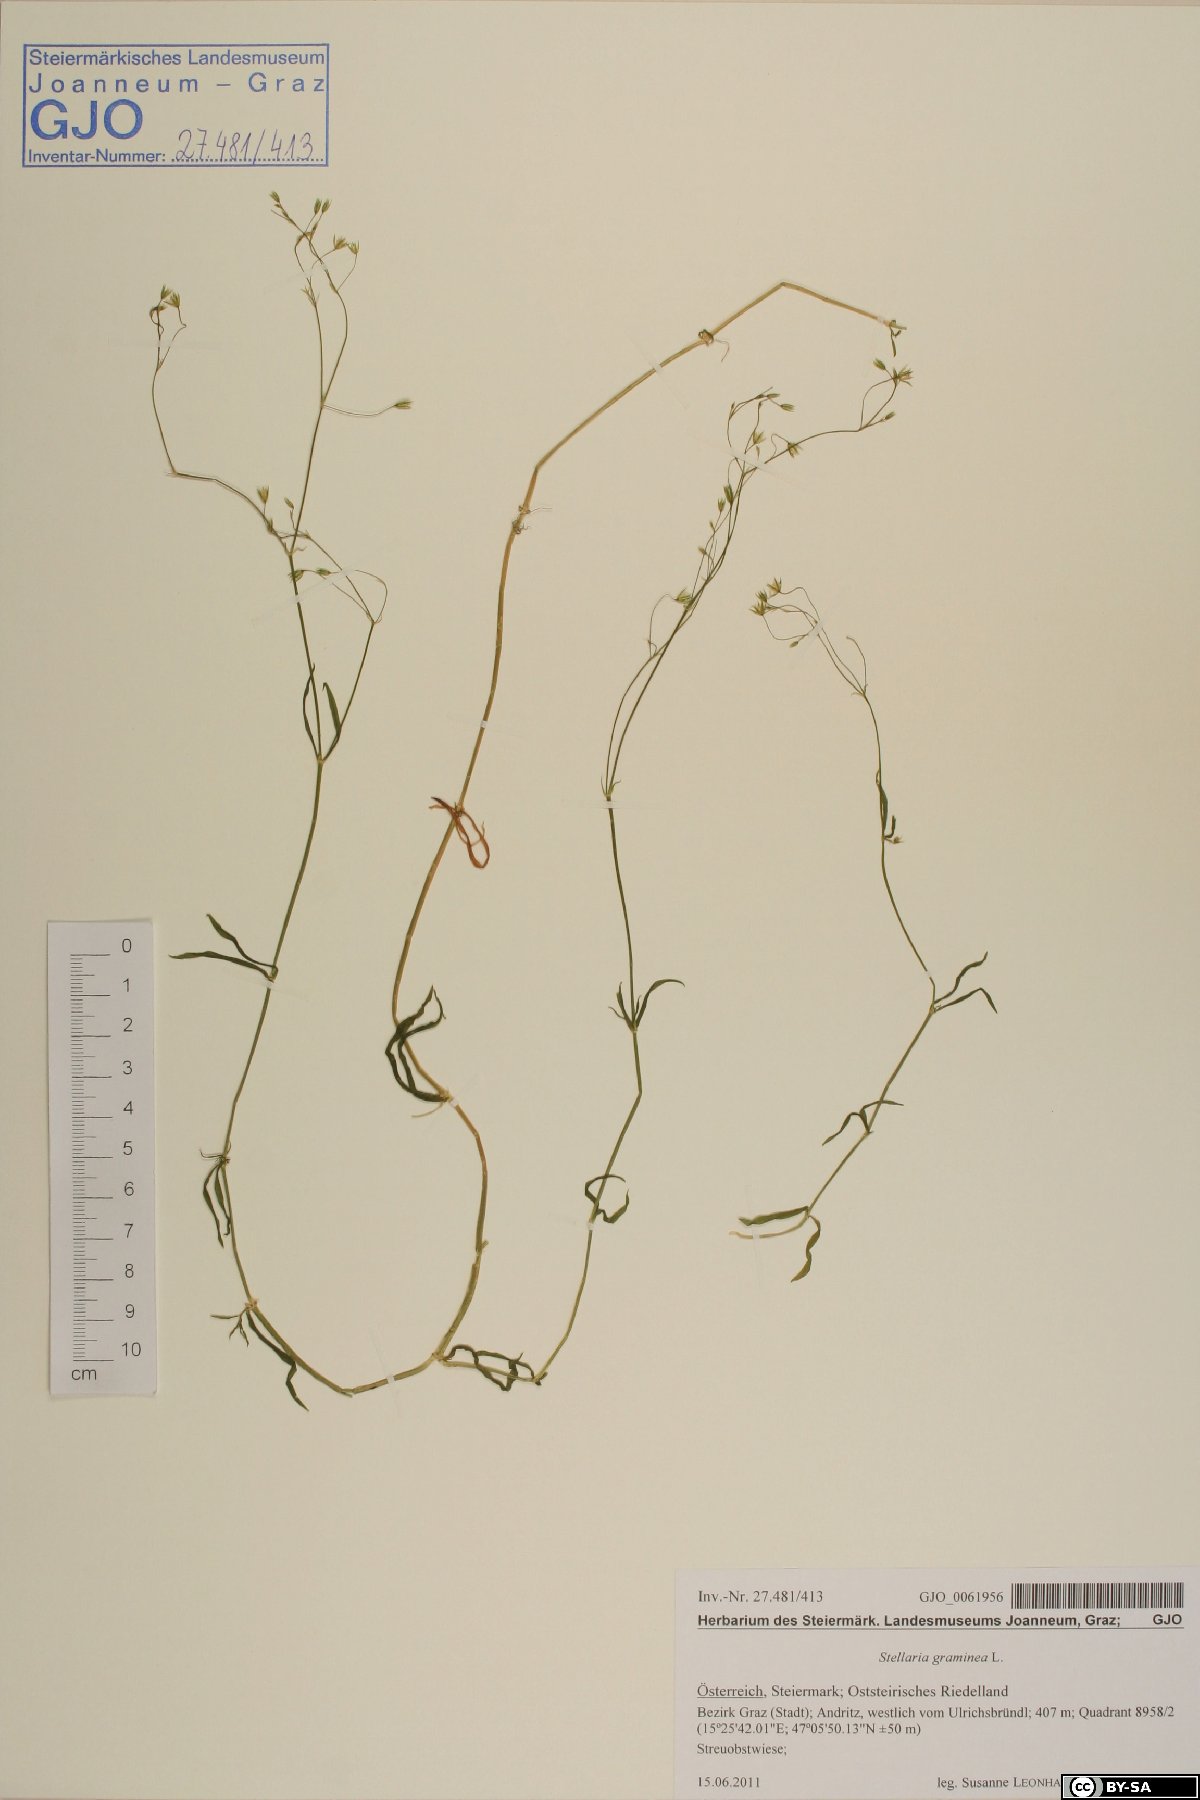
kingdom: Plantae
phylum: Tracheophyta
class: Magnoliopsida
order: Caryophyllales
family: Caryophyllaceae
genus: Stellaria
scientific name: Stellaria graminea
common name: Grass-like starwort
